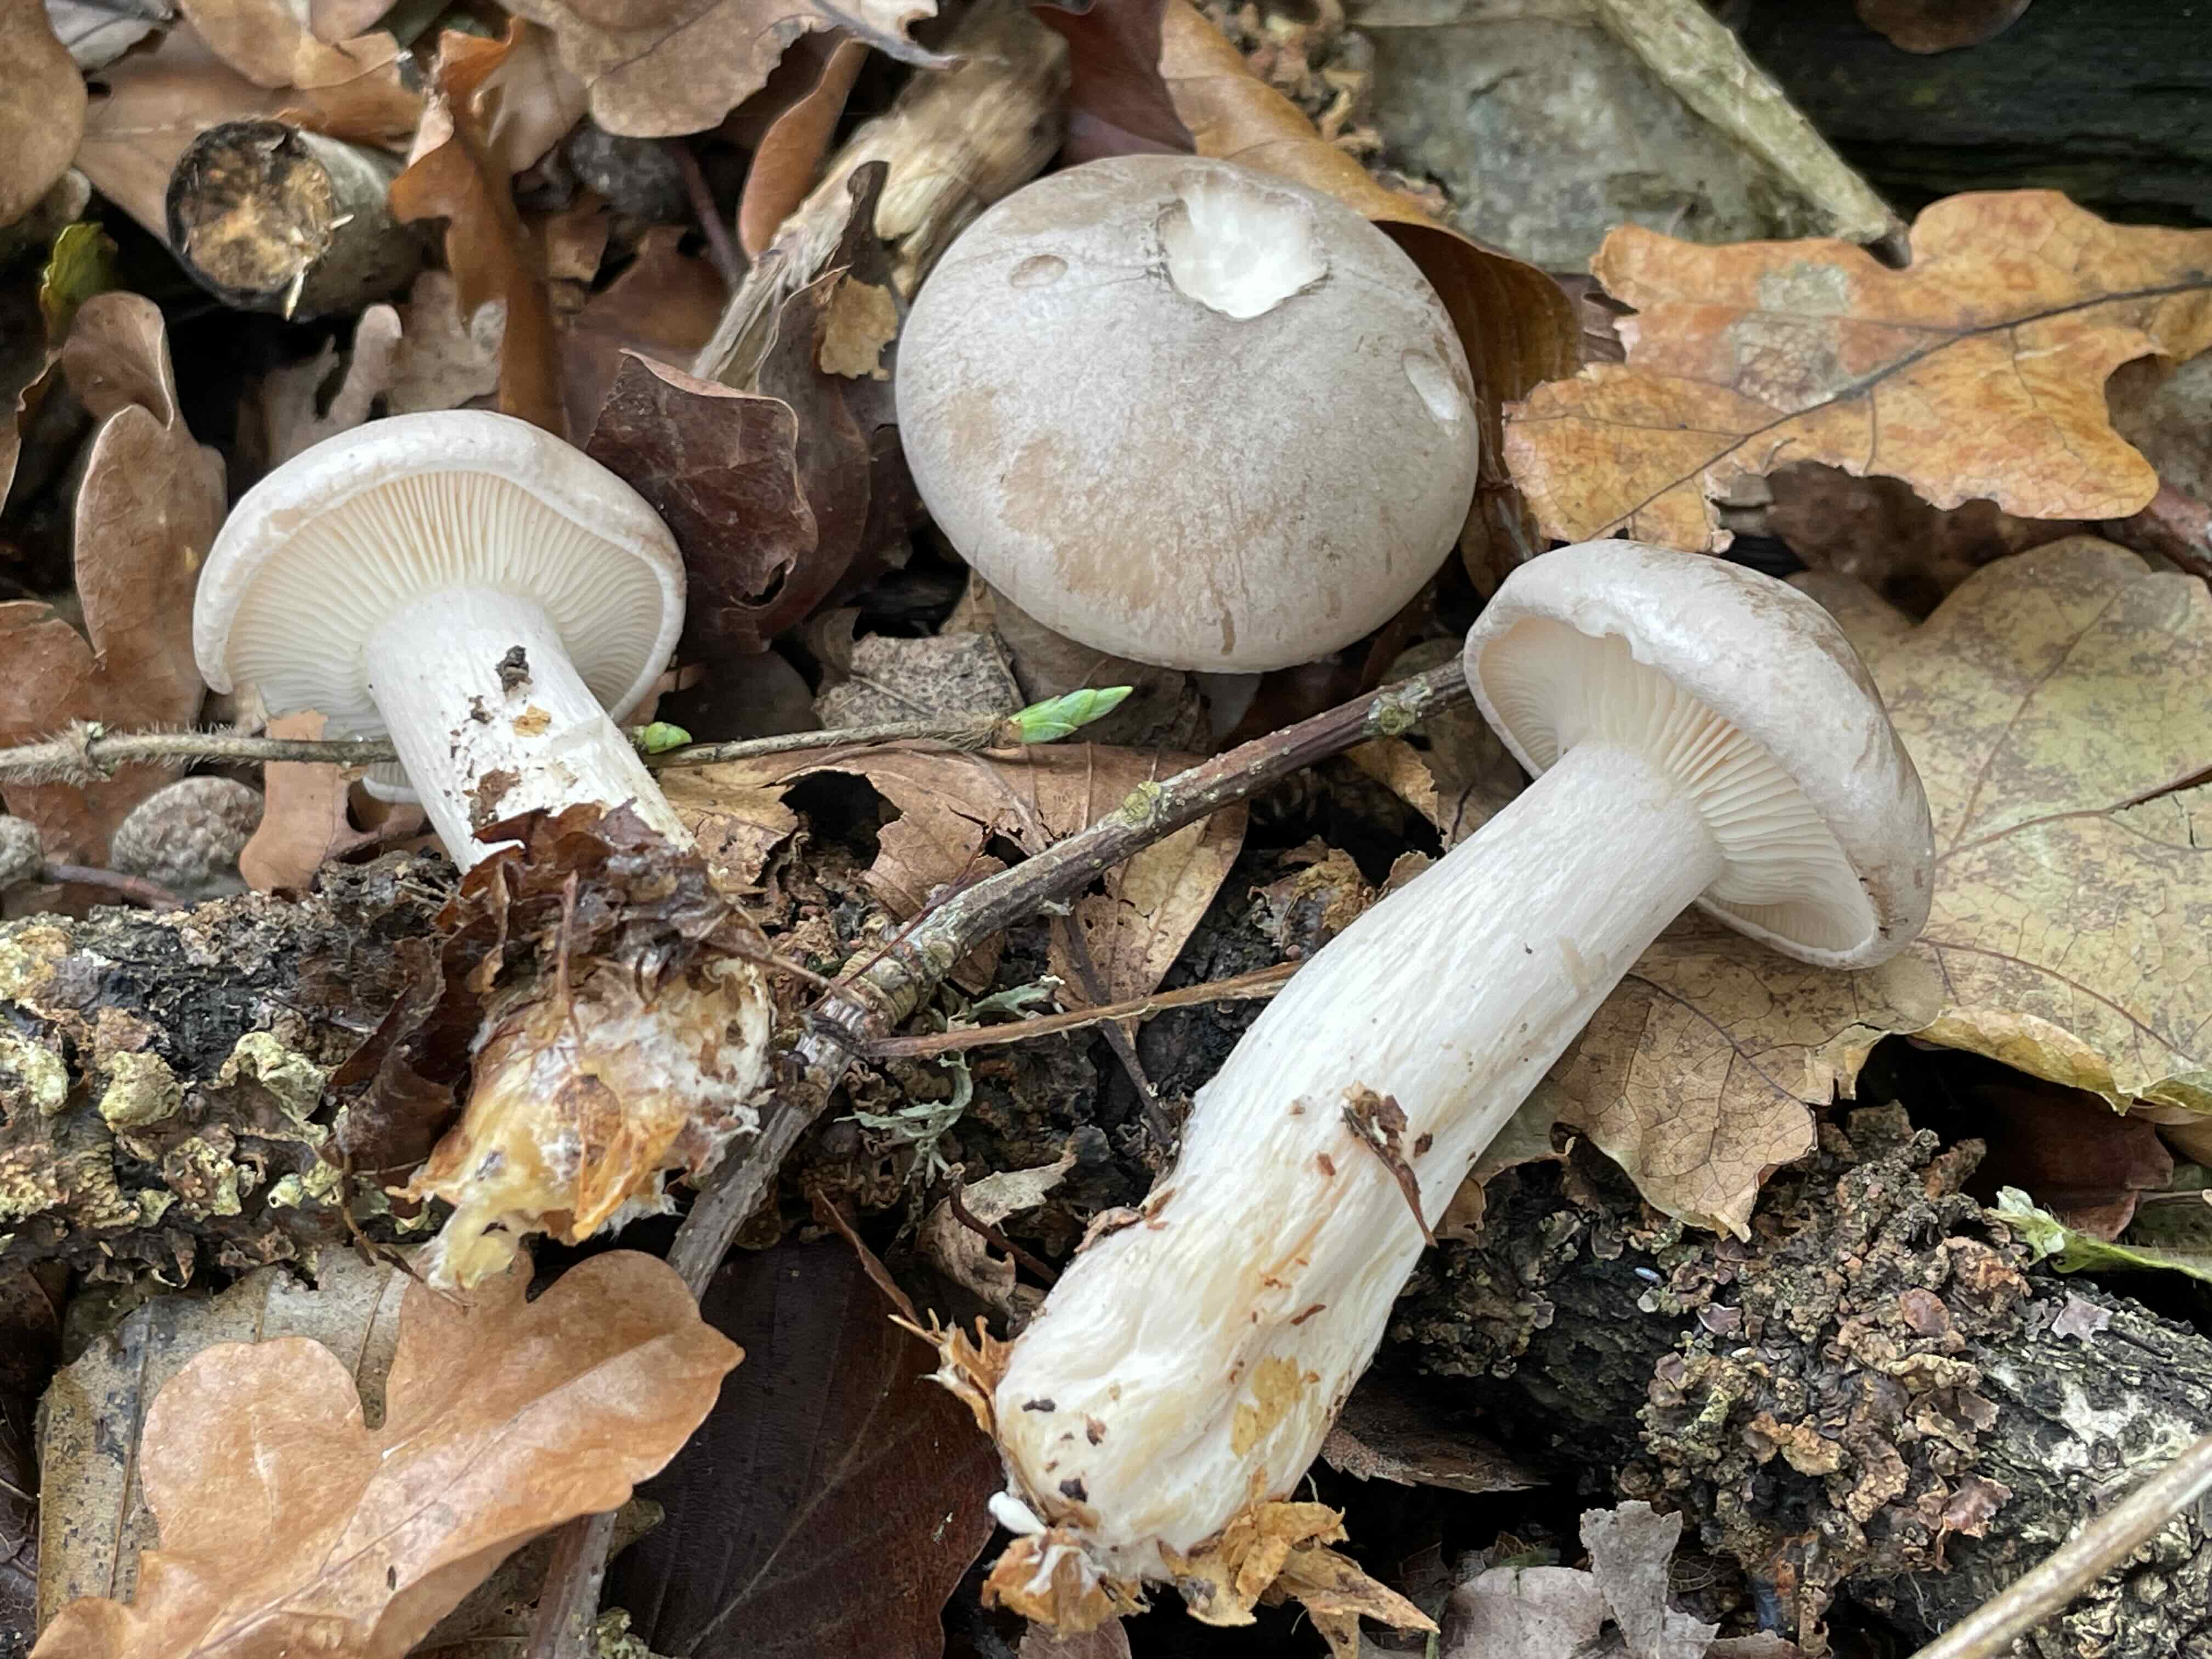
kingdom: Fungi
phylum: Basidiomycota
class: Agaricomycetes
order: Agaricales
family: Tricholomataceae
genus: Clitocybe
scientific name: Clitocybe nebularis
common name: tåge-tragthat
